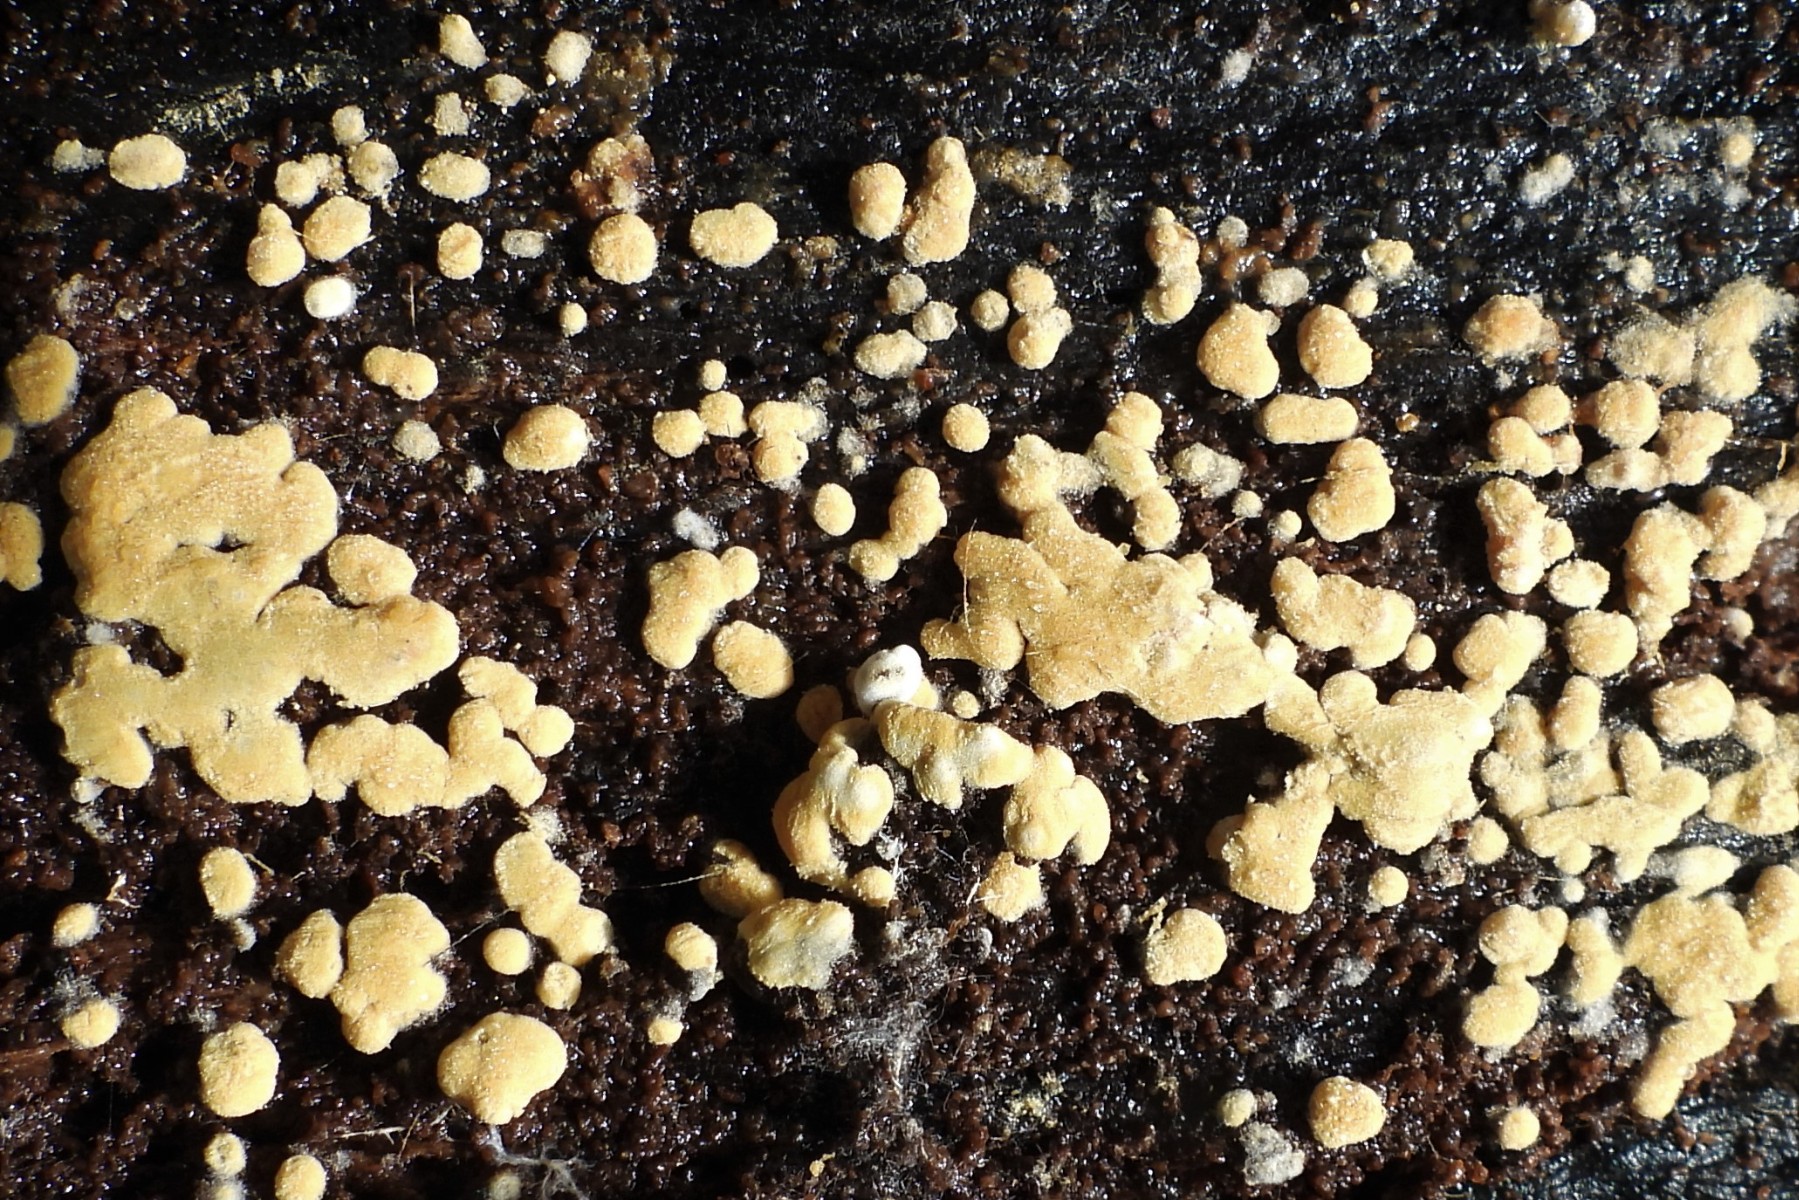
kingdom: Fungi
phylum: Basidiomycota
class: Agaricomycetes
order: Cantharellales
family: Botryobasidiaceae
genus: Botryobasidium
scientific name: Botryobasidium aureum
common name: gylden spindhinde
